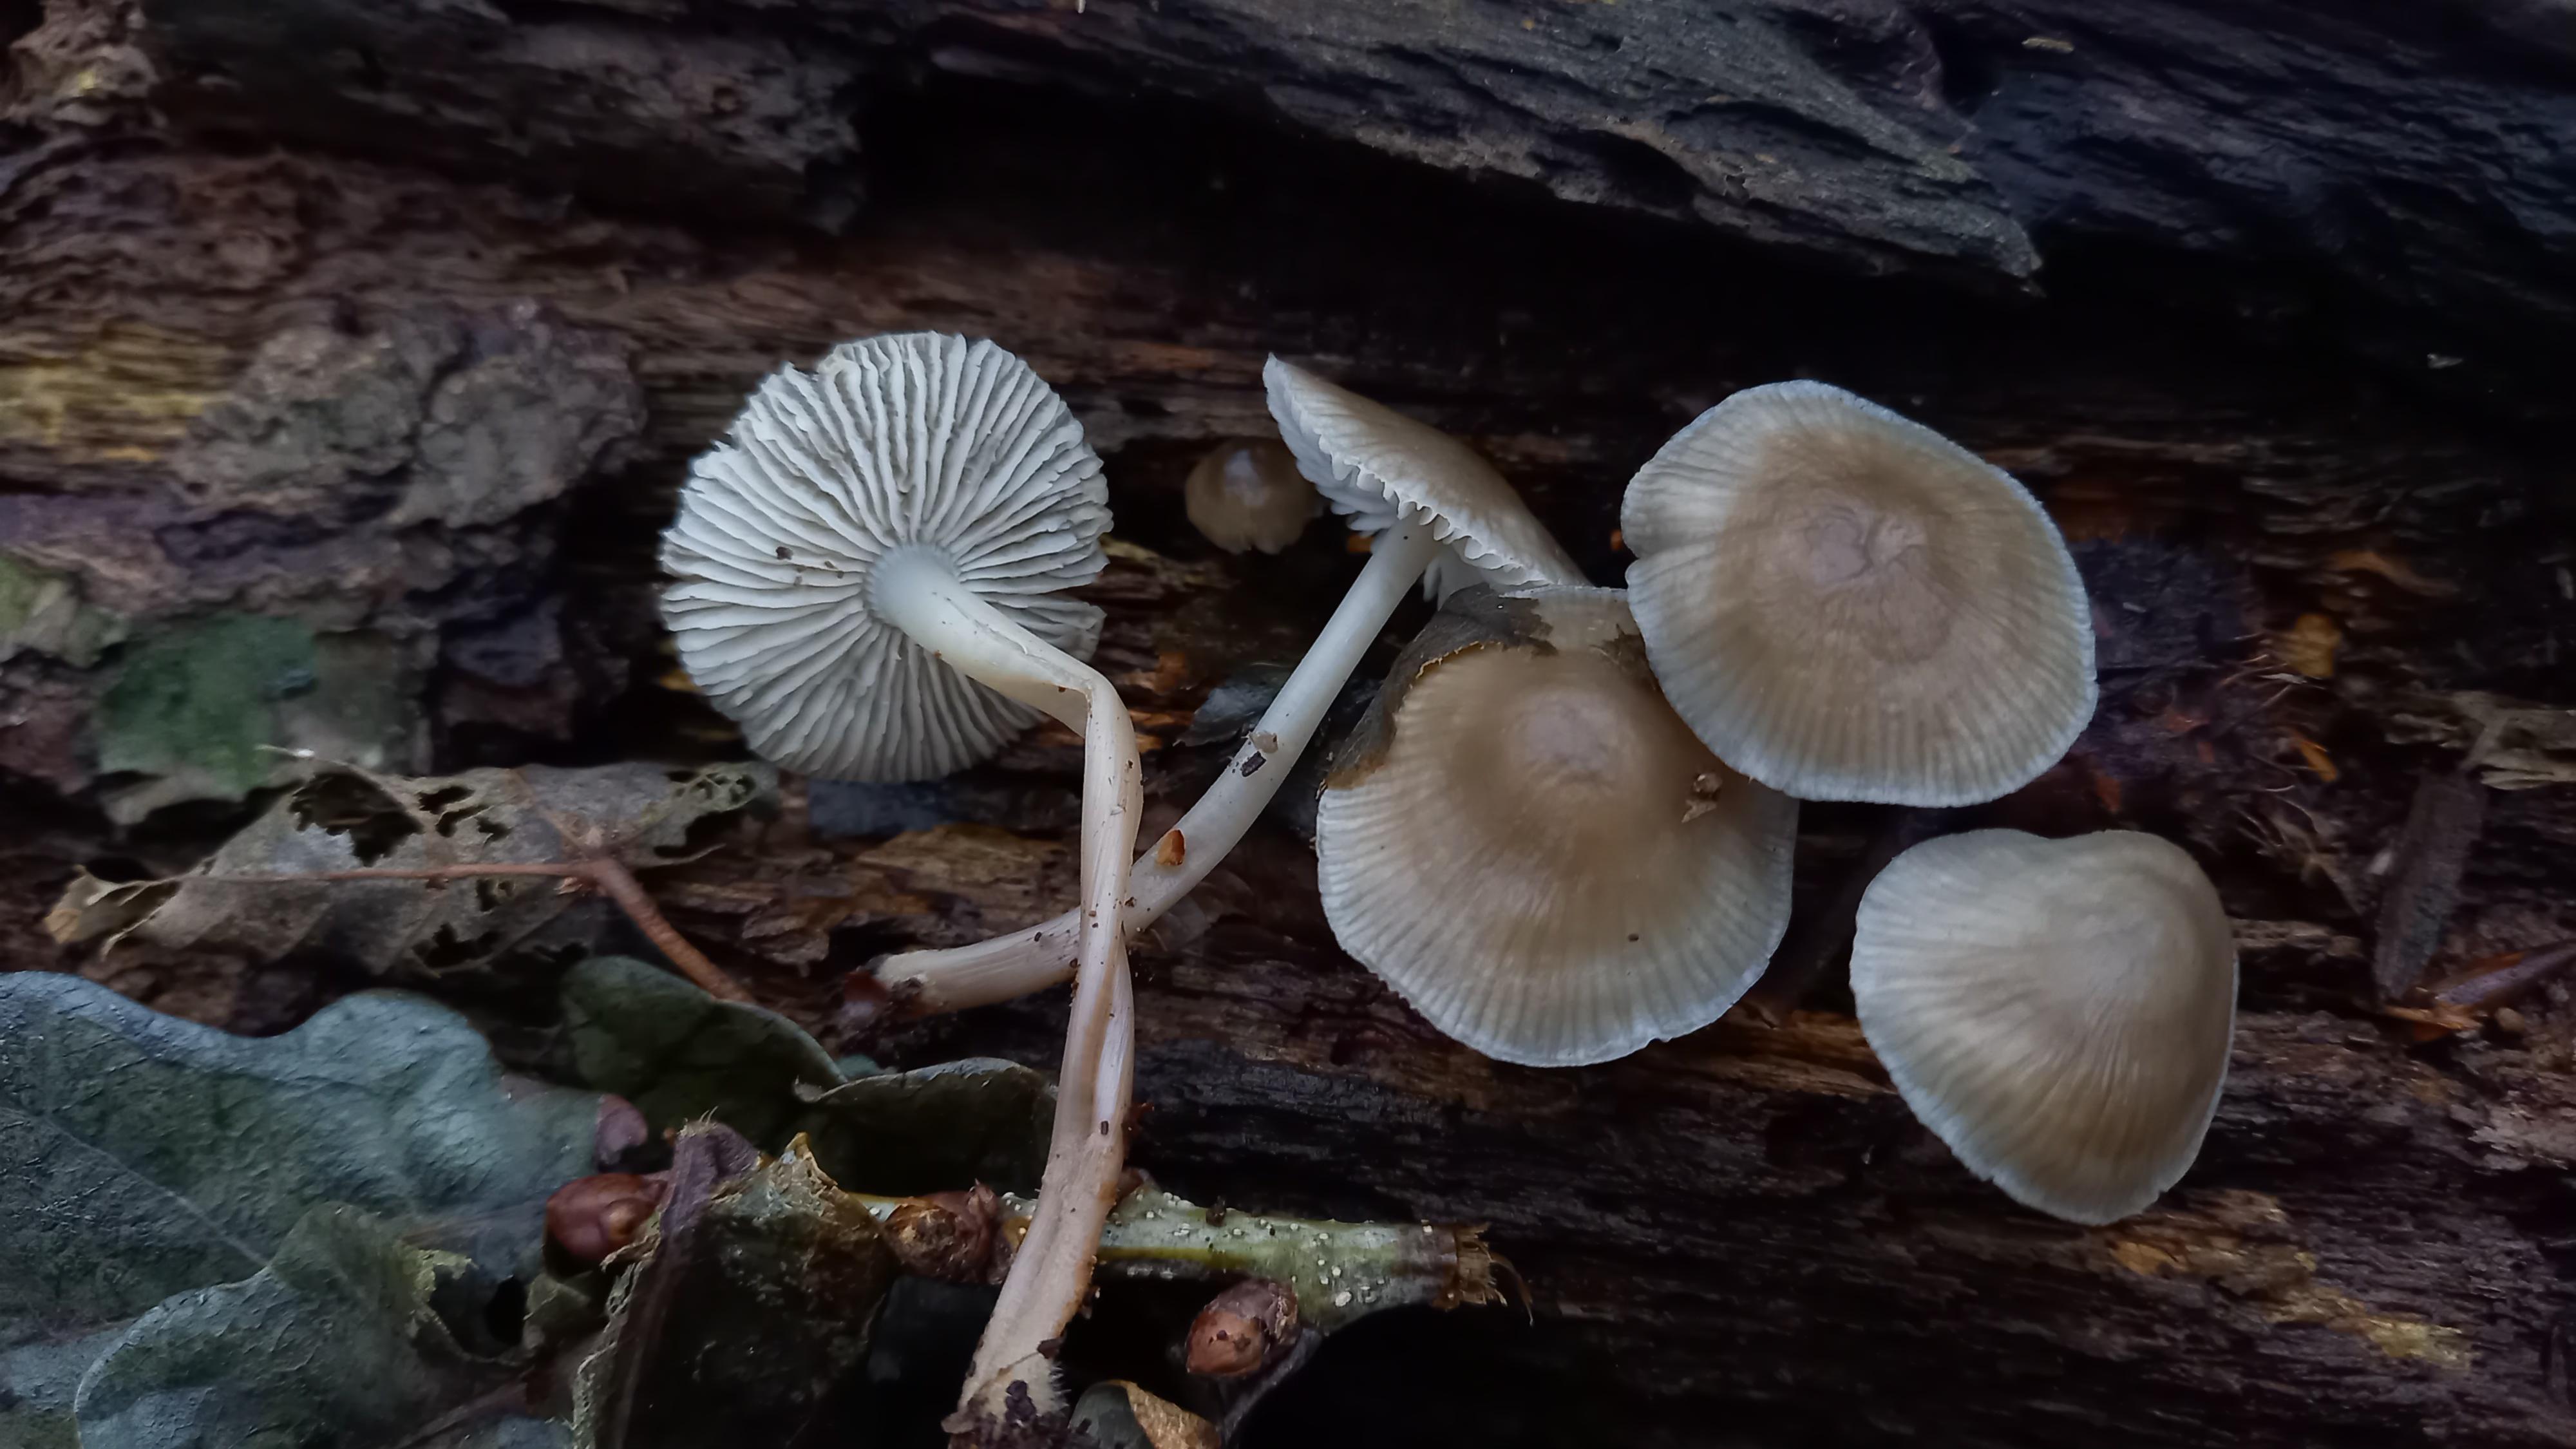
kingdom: Fungi
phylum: Basidiomycota
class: Agaricomycetes
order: Agaricales
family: Mycenaceae
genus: Mycena
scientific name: Mycena galericulata
